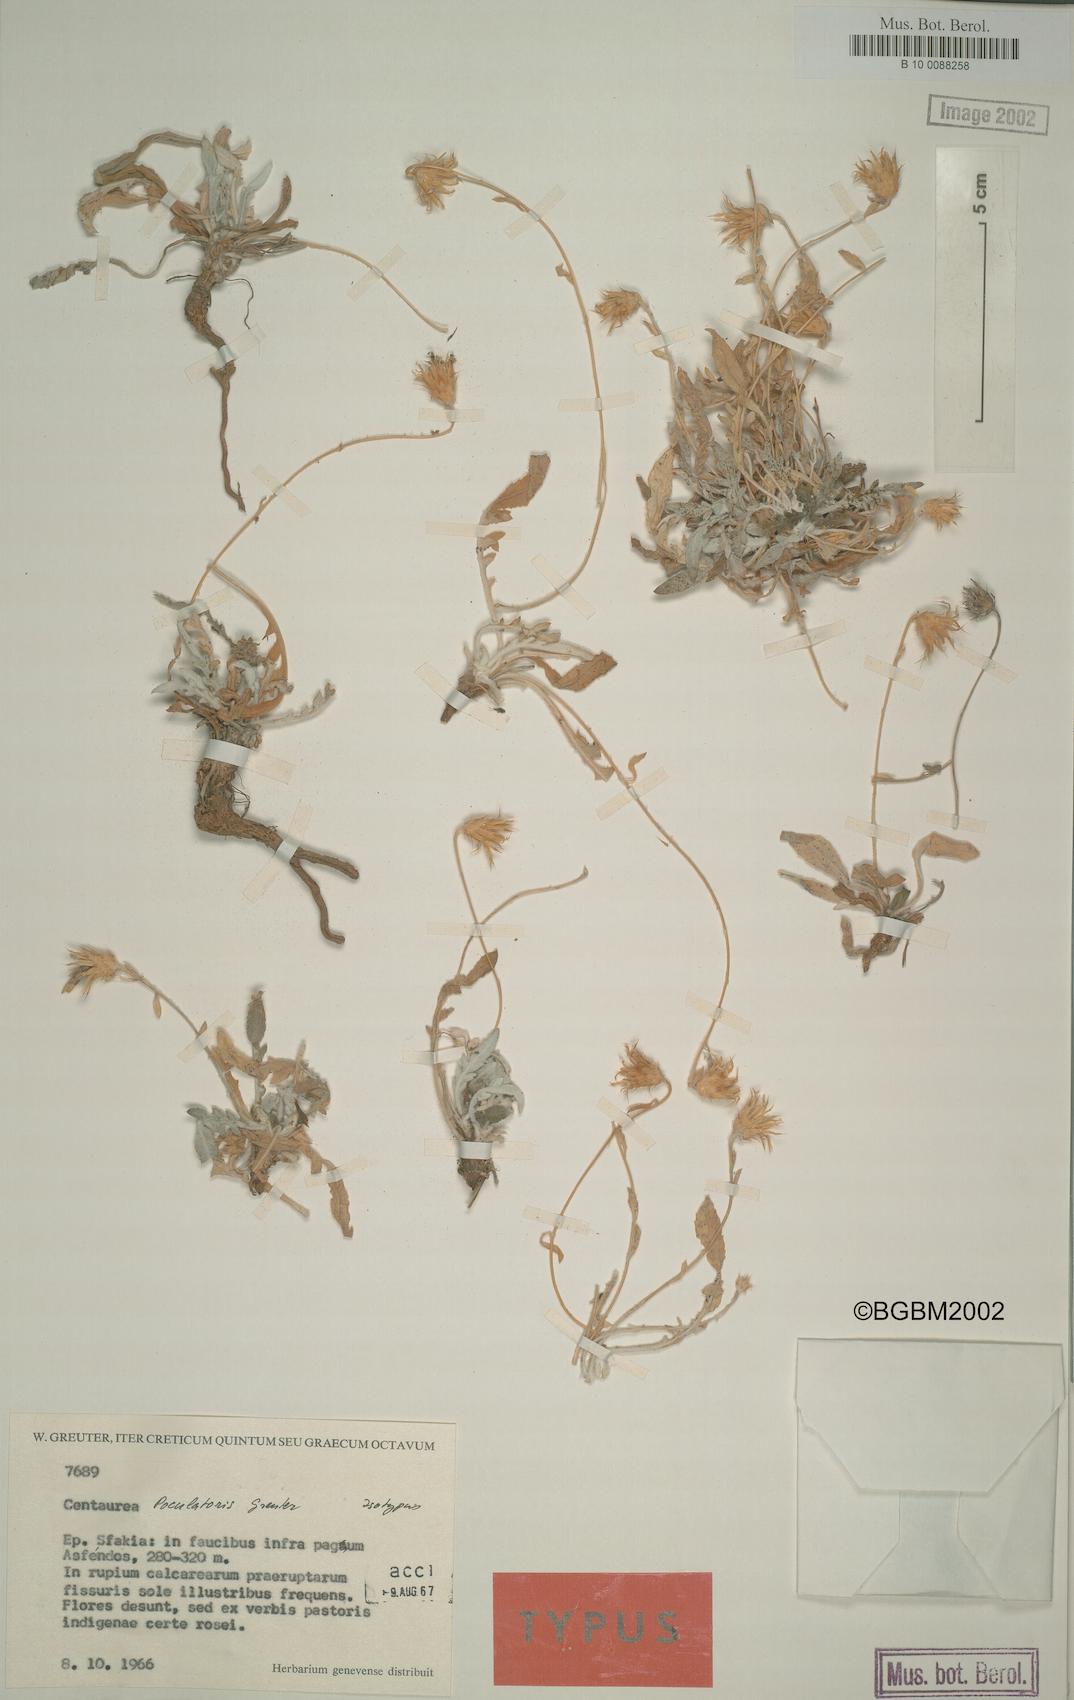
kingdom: Plantae
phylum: Tracheophyta
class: Magnoliopsida
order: Asterales
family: Asteraceae
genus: Centaurea
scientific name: Centaurea poculatoris
